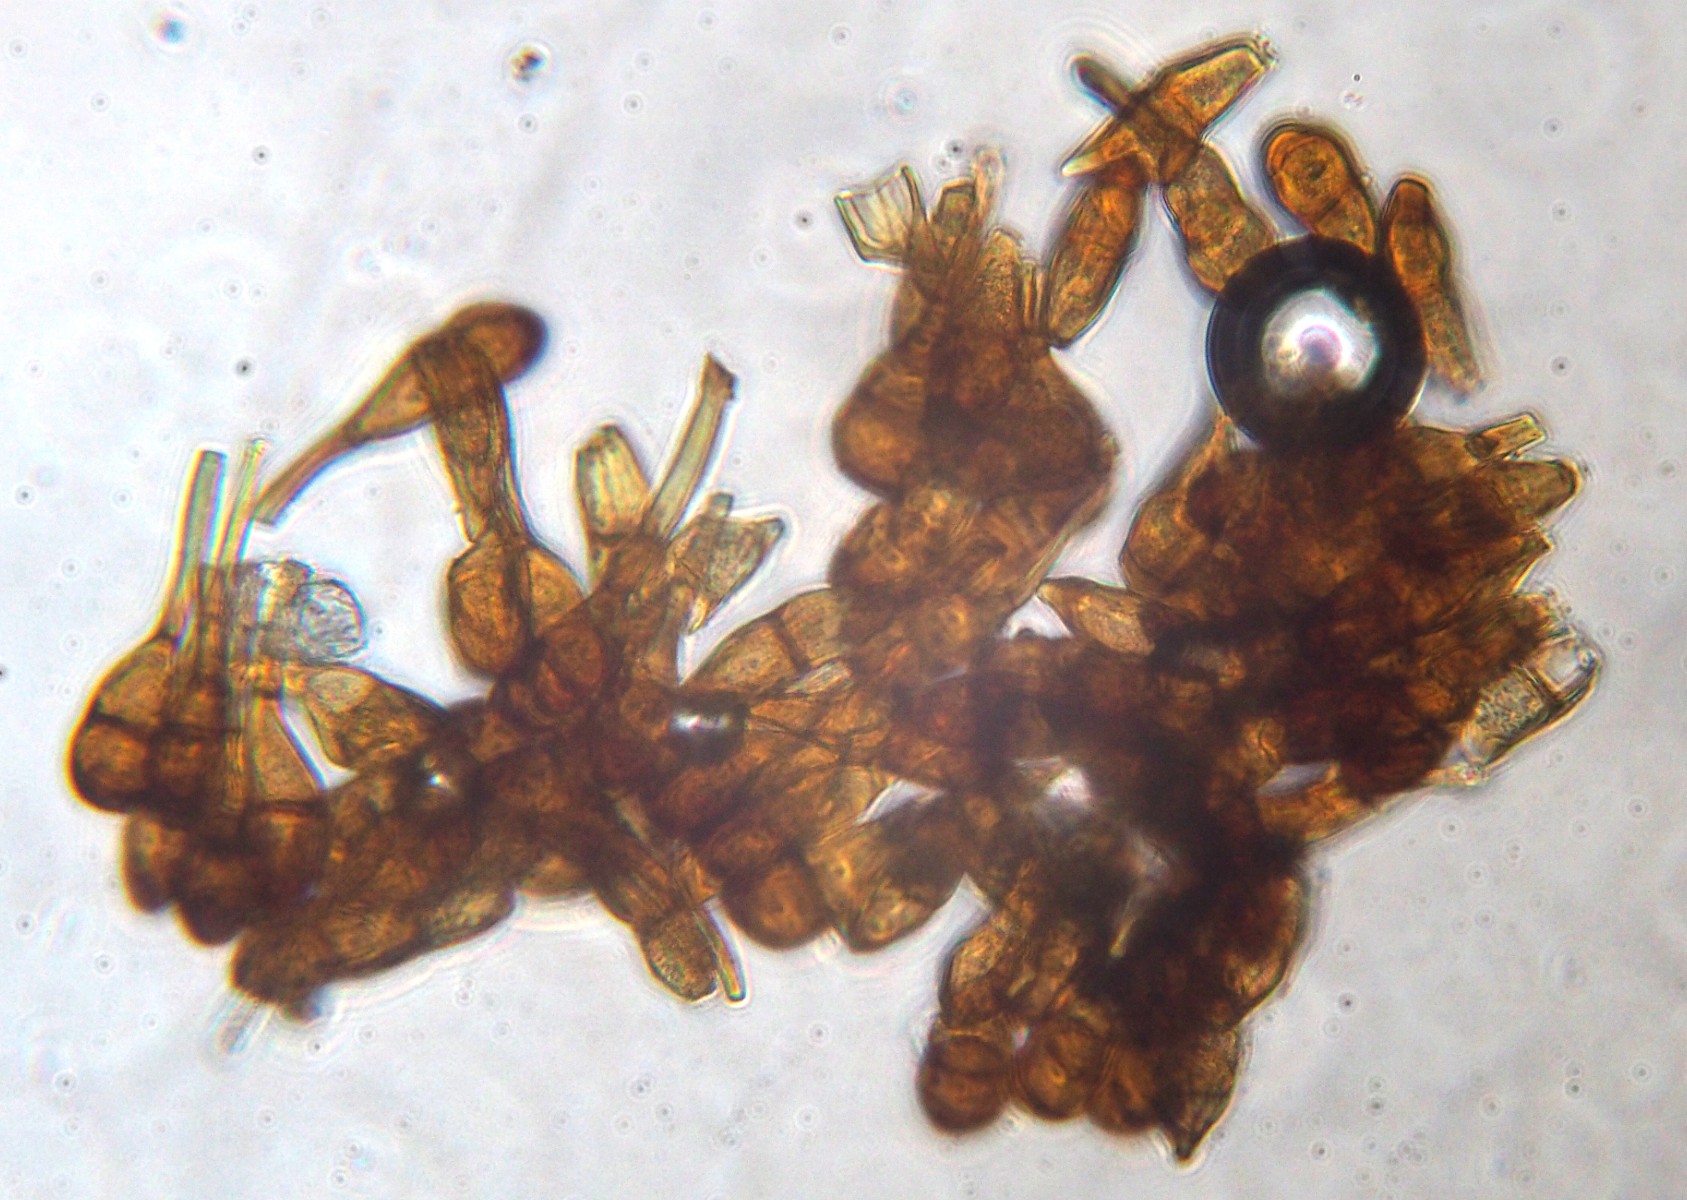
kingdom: Fungi
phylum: Basidiomycota
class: Pucciniomycetes
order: Pucciniales
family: Pucciniaceae
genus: Puccinia
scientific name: Puccinia phragmitis
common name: tagrør-tvecellerust
